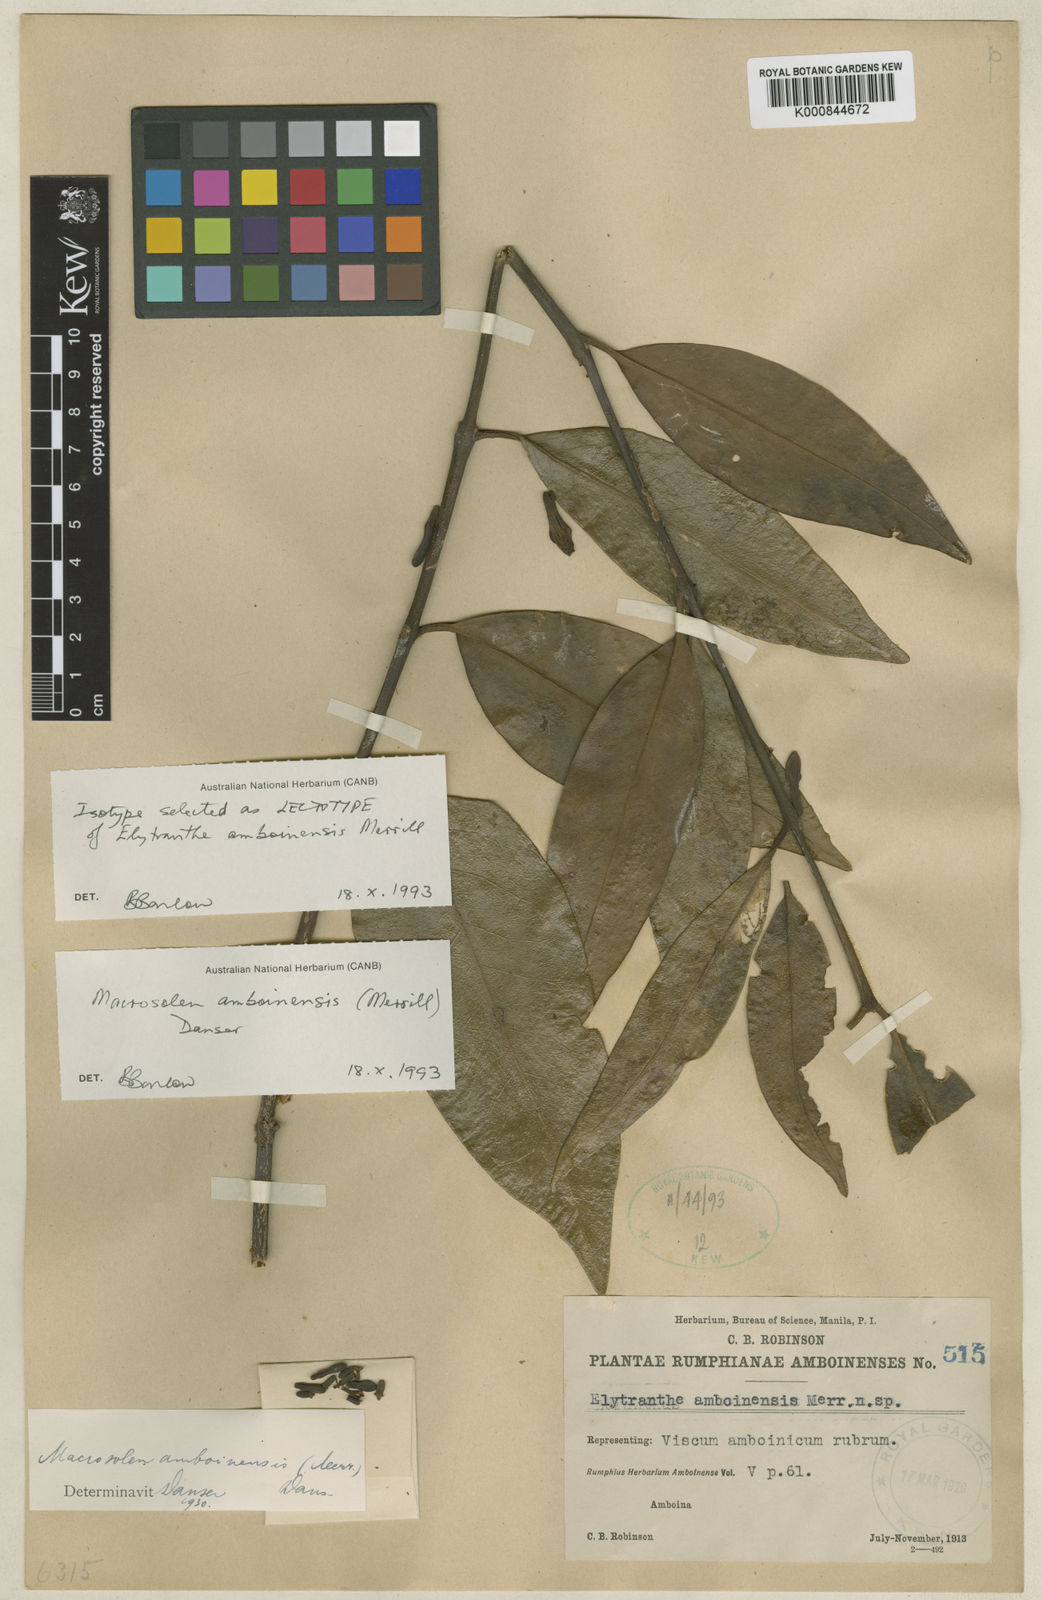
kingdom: Plantae
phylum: Tracheophyta
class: Magnoliopsida
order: Santalales
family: Loranthaceae
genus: Macrosolen
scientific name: Macrosolen amboinensis
